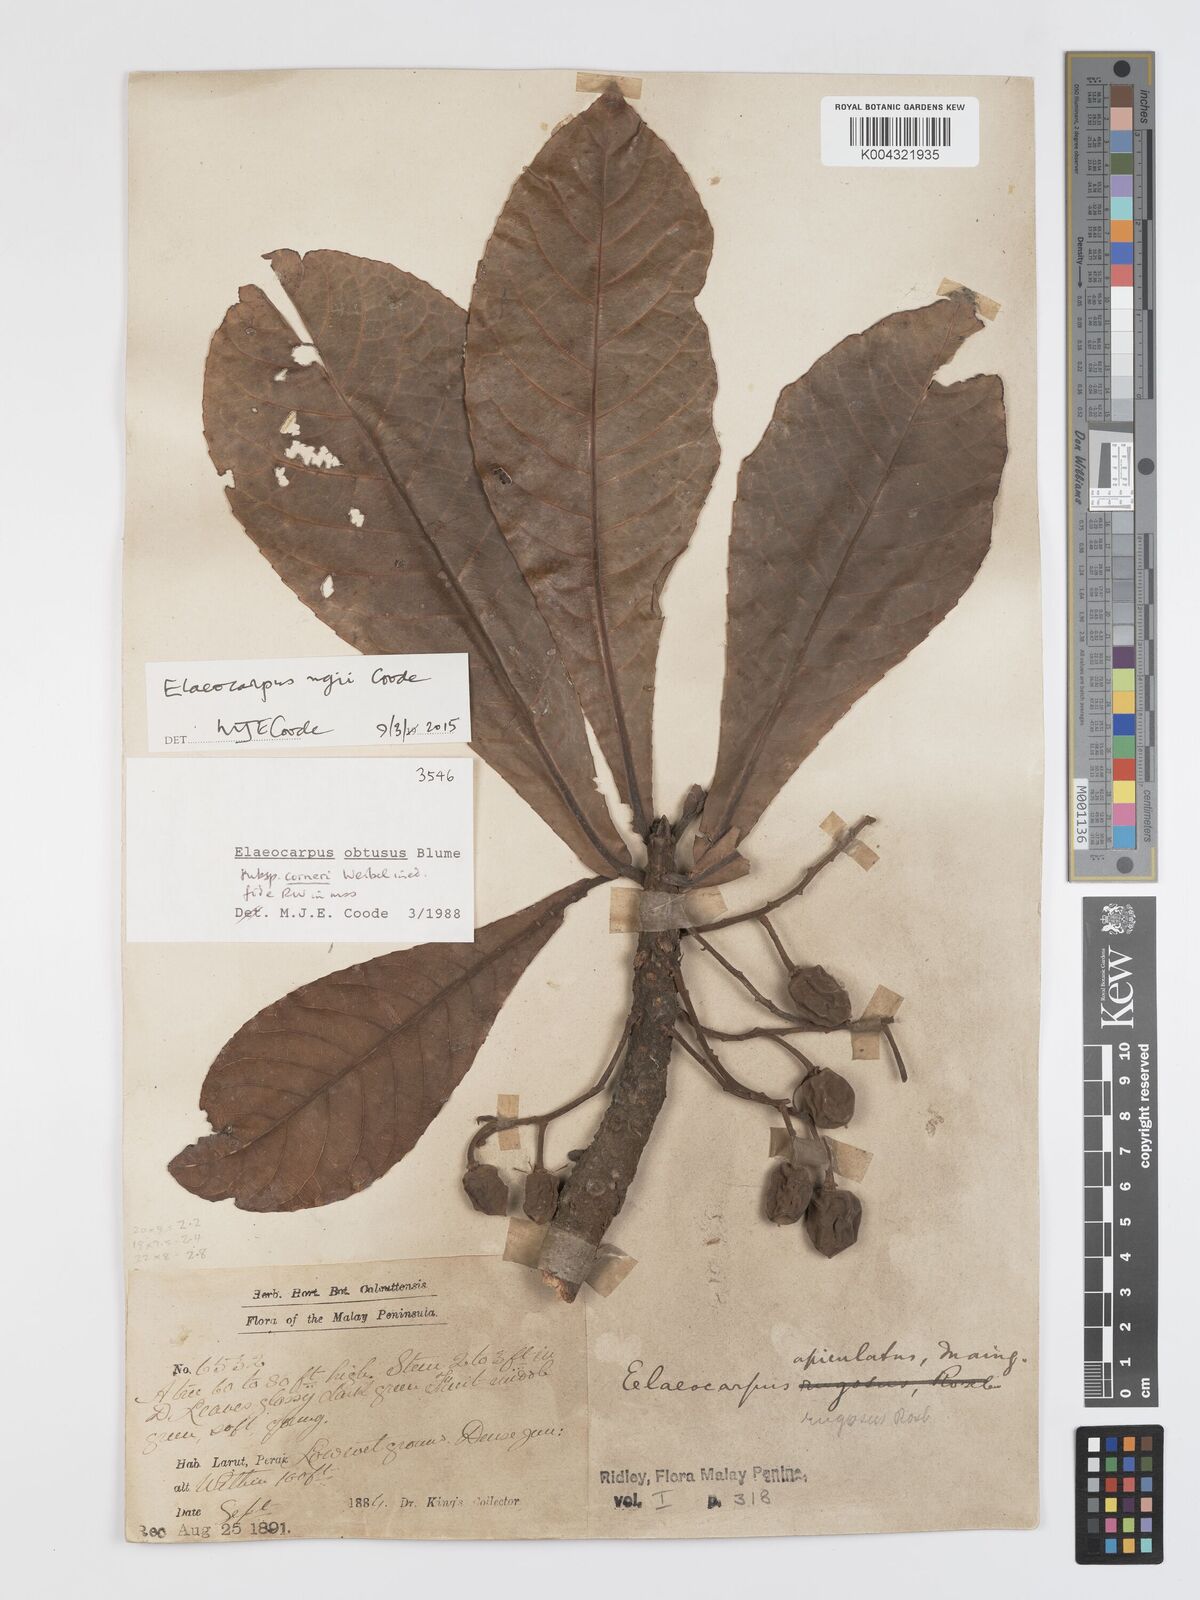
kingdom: Plantae
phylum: Tracheophyta
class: Magnoliopsida
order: Oxalidales
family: Elaeocarpaceae
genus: Elaeocarpus
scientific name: Elaeocarpus obtusus
